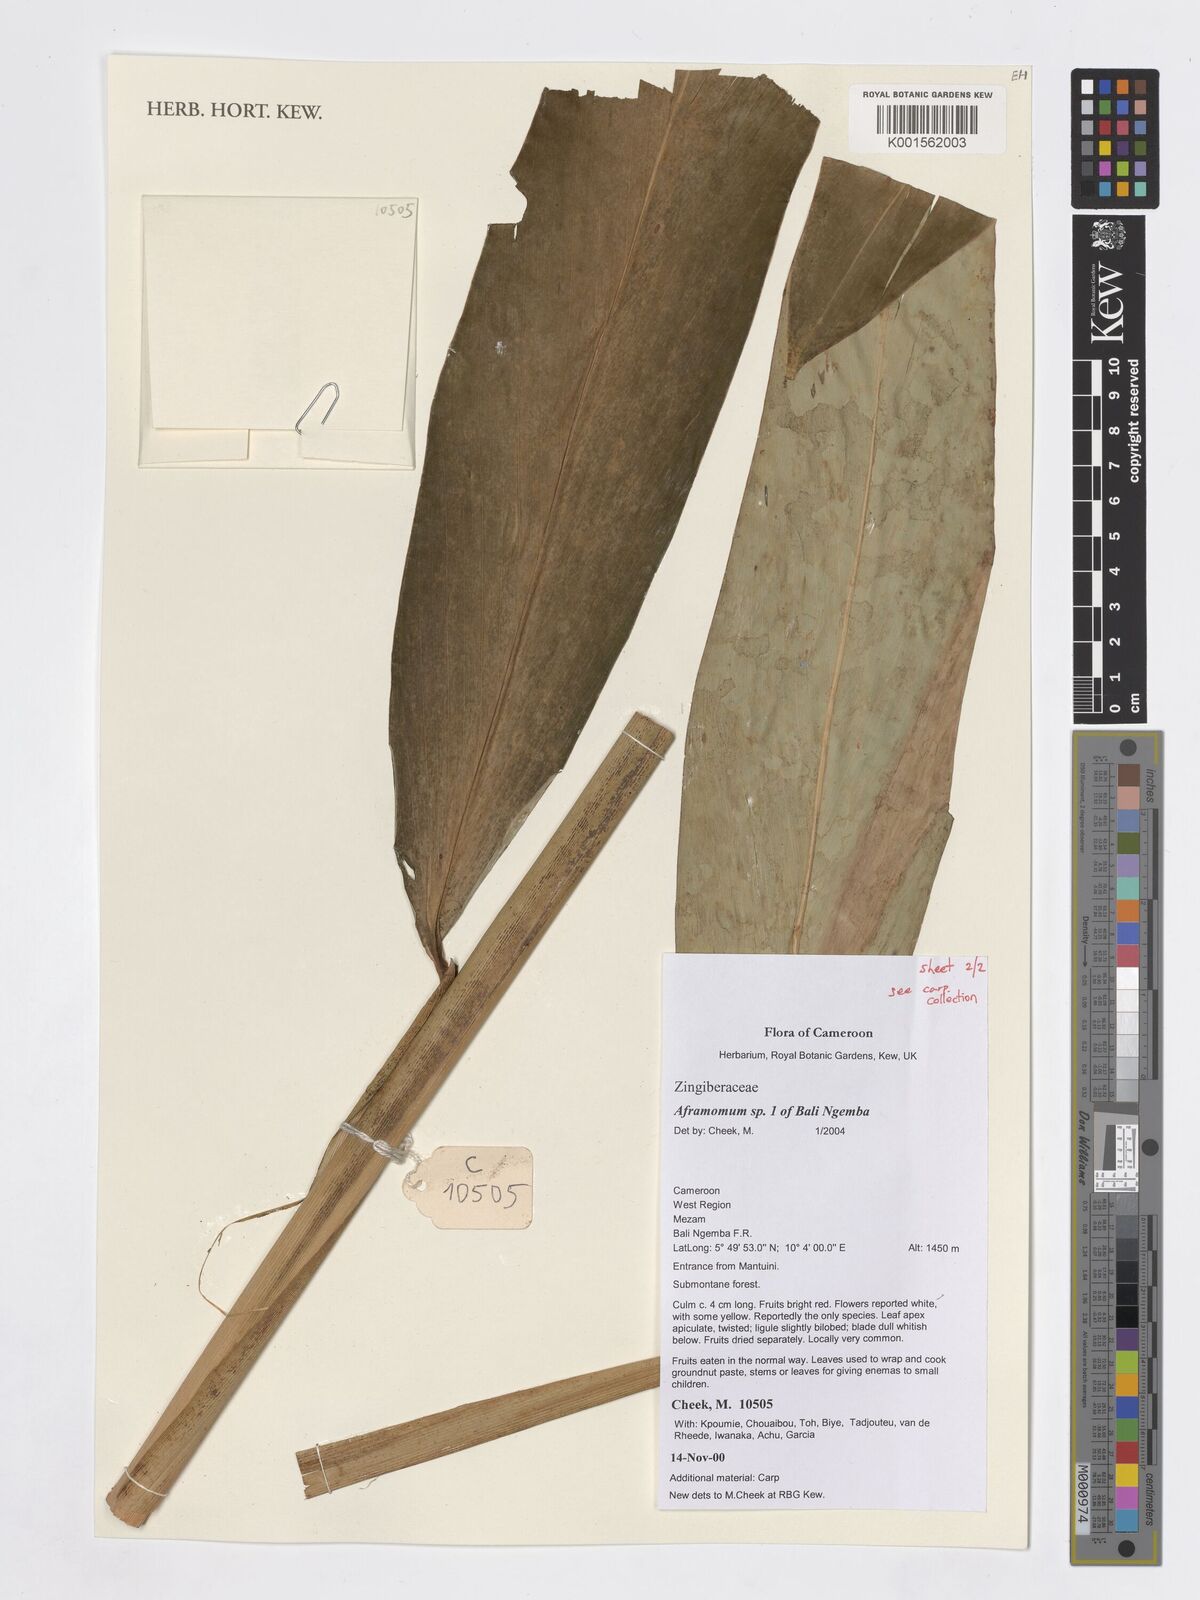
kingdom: Plantae
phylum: Tracheophyta
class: Liliopsida
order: Zingiberales
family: Zingiberaceae
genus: Aframomum
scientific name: Aframomum
